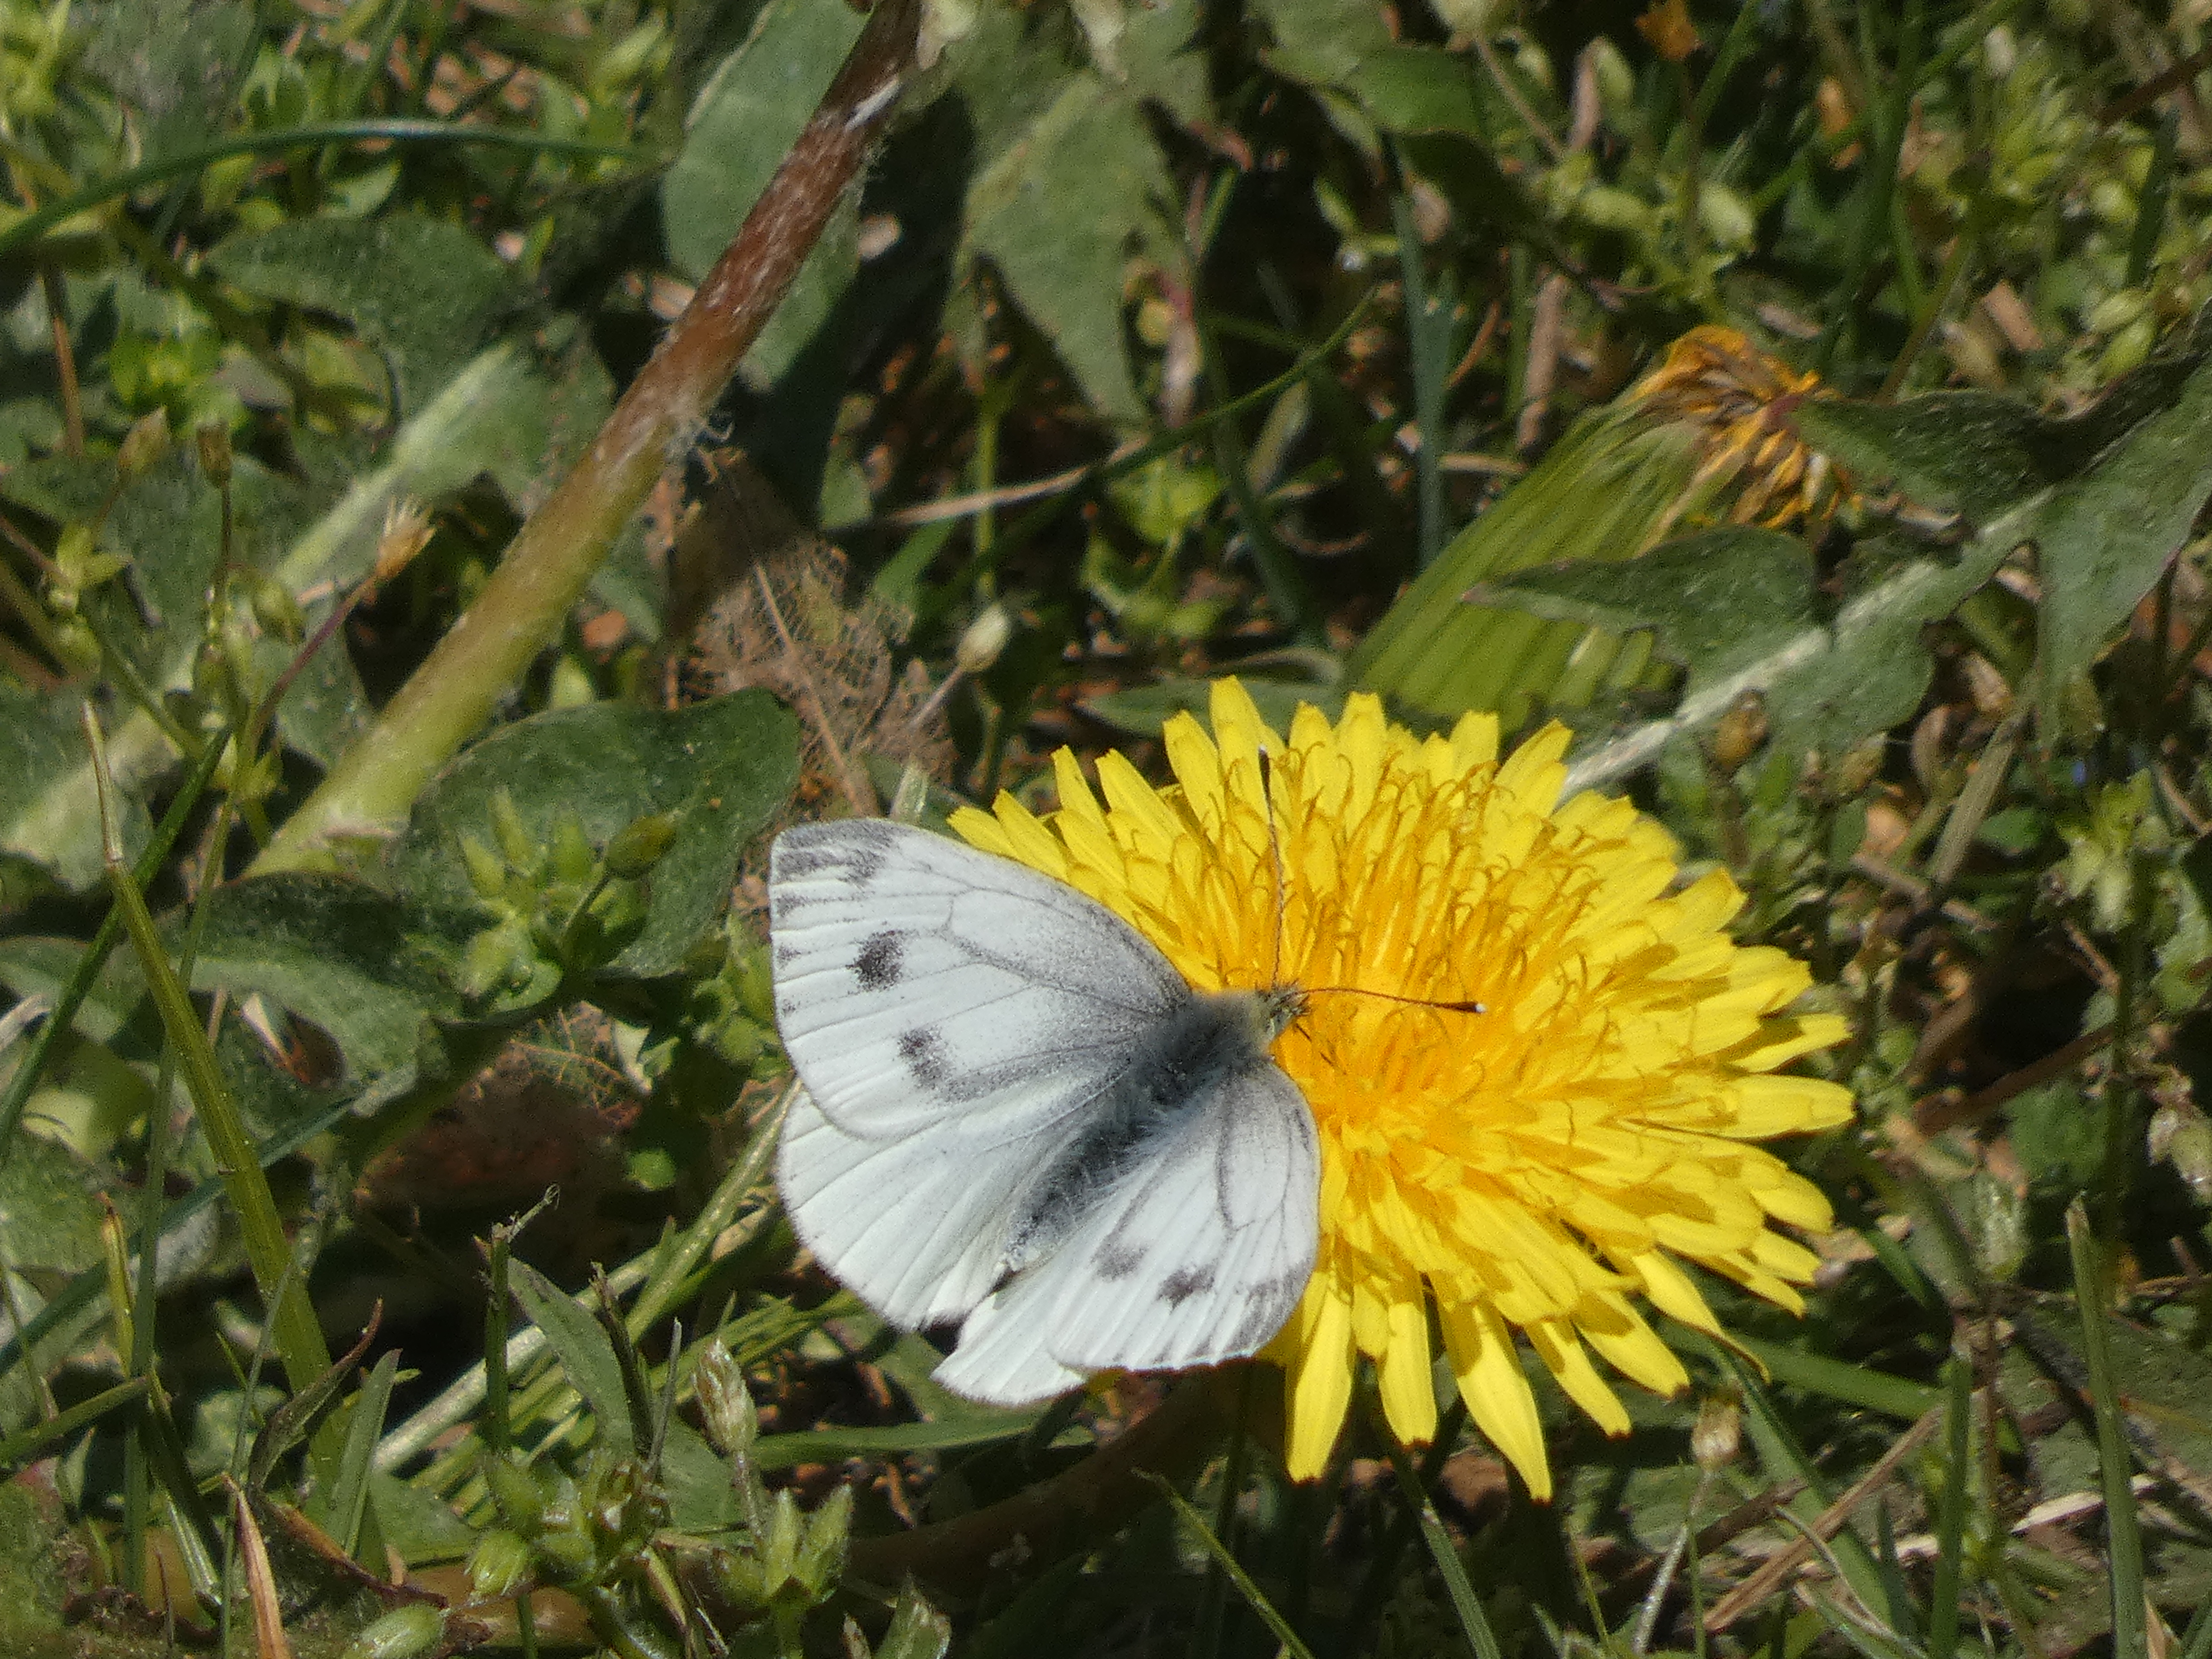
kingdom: Animalia
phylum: Arthropoda
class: Insecta
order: Lepidoptera
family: Pieridae
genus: Pieris
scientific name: Pieris napi
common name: Grønåret kålsommerfugl
